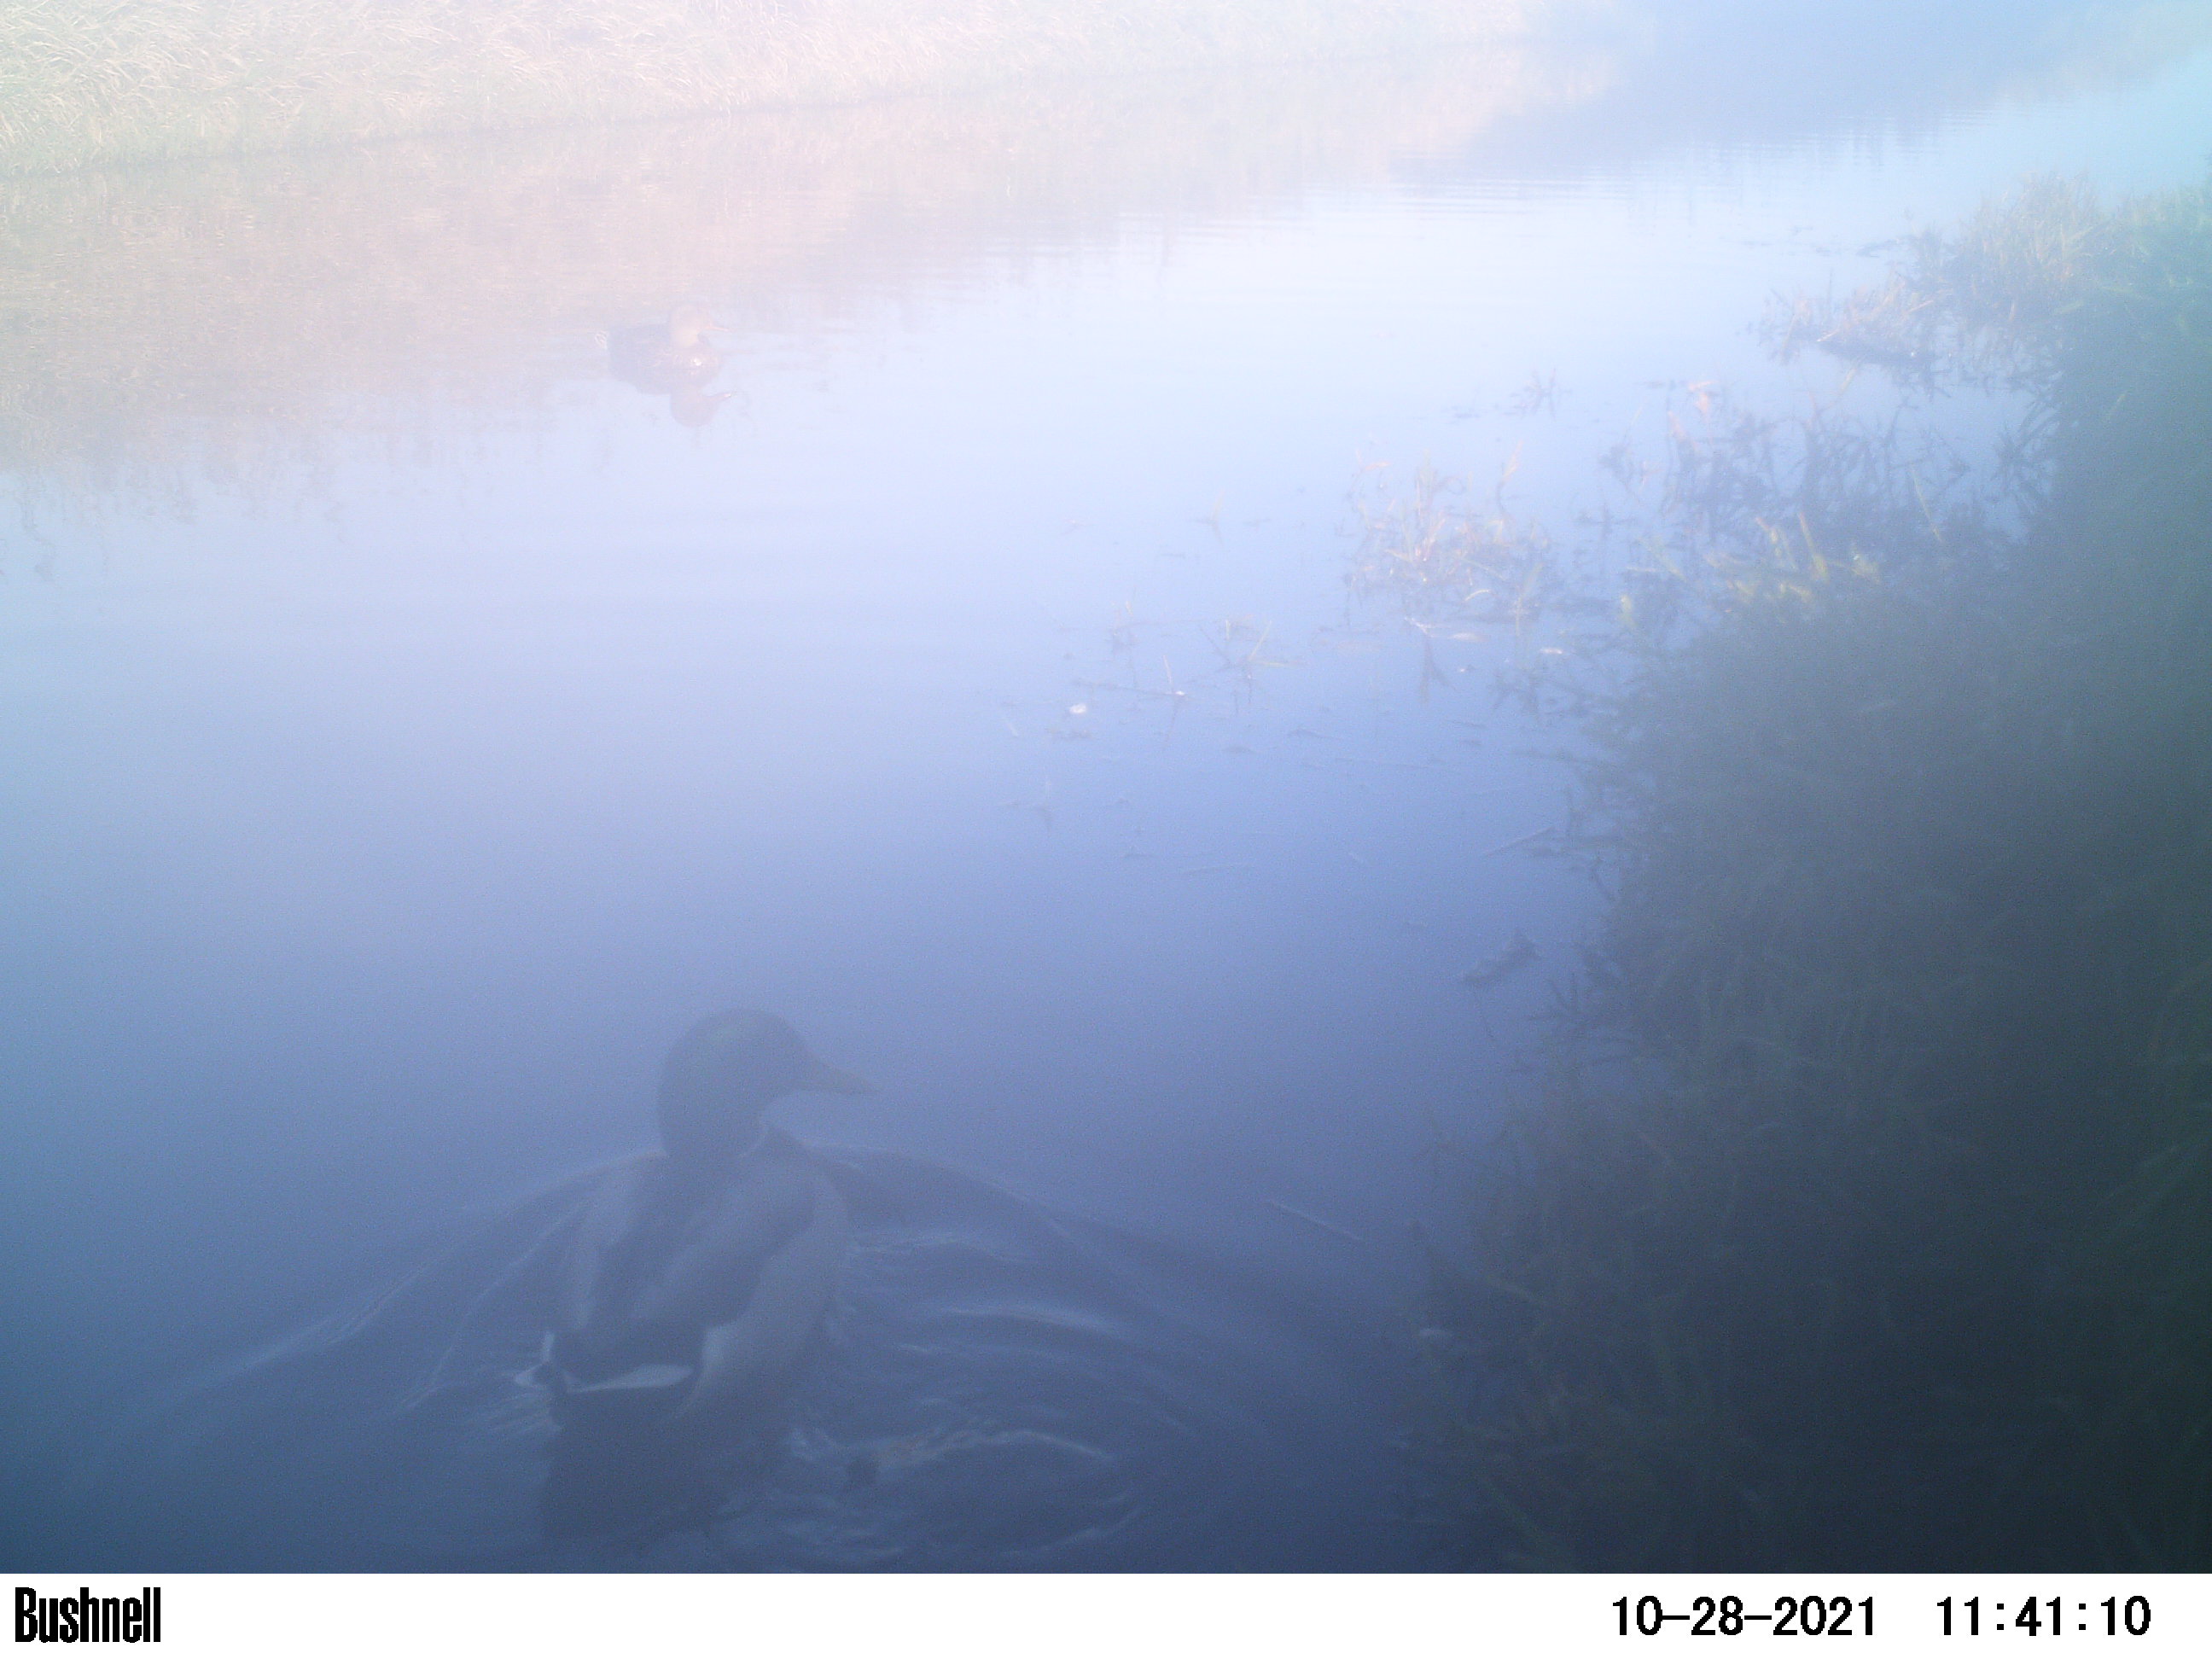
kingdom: Animalia
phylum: Chordata
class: Aves
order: Anseriformes
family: Anatidae
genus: Anas
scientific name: Anas
